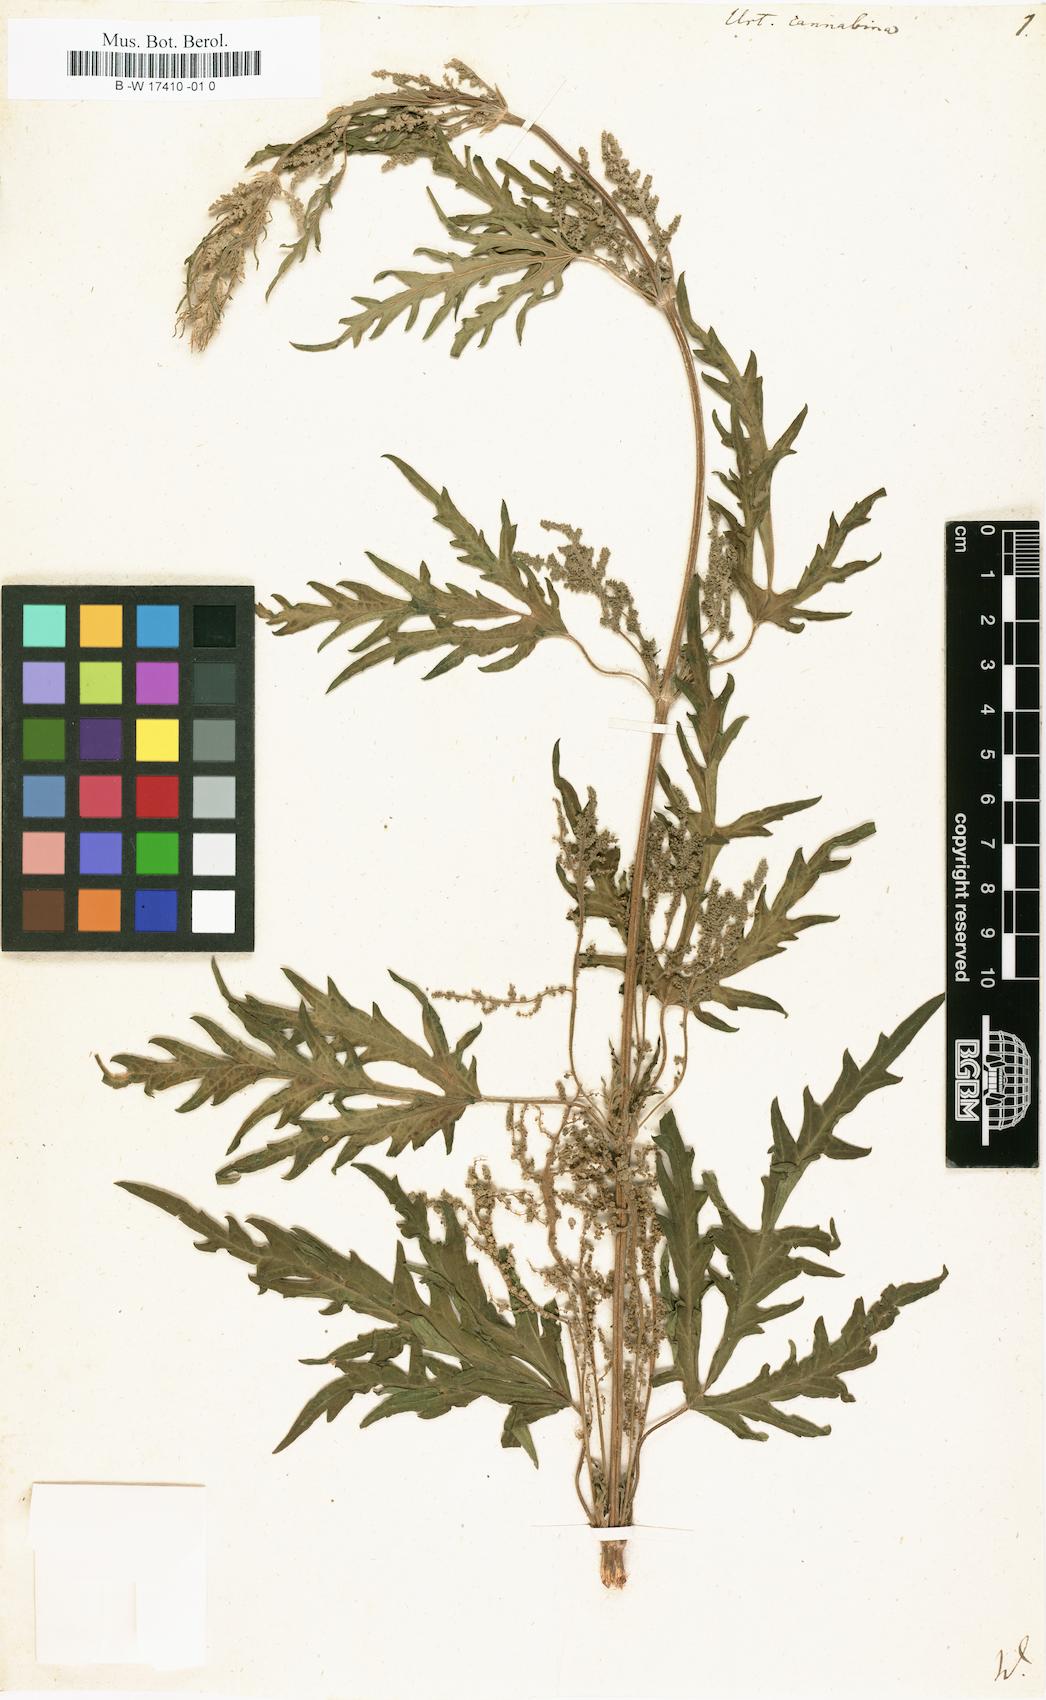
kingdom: Plantae
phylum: Tracheophyta
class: Magnoliopsida
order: Rosales
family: Urticaceae
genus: Urtica
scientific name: Urtica cannabina
